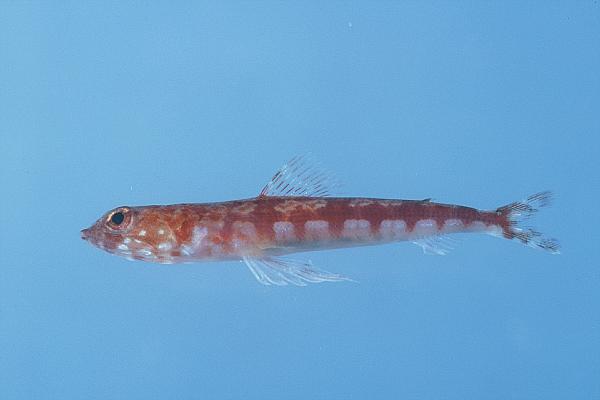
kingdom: Animalia
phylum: Chordata
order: Aulopiformes
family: Synodontidae
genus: Synodus
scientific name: Synodus variegatus
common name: Variegated lizardfish
